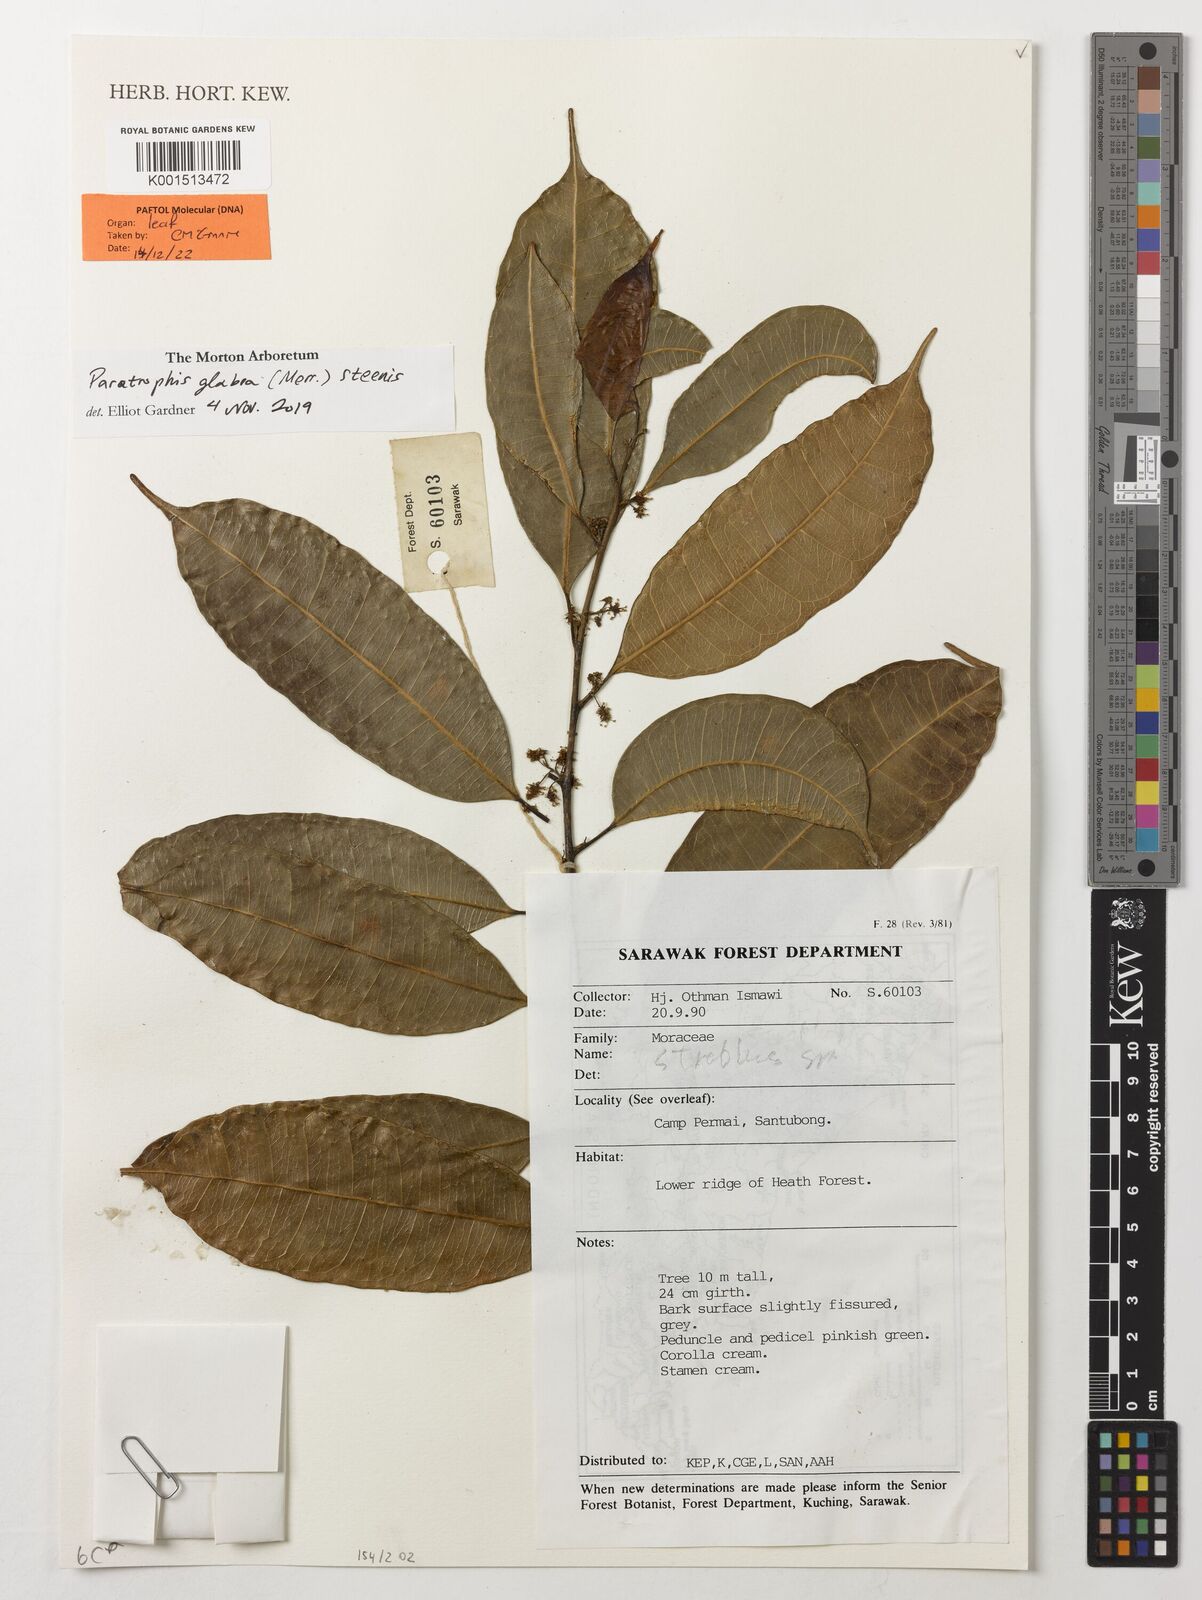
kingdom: Plantae
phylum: Tracheophyta
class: Magnoliopsida
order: Rosales
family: Moraceae
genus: Paratrophis
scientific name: Paratrophis glabra
